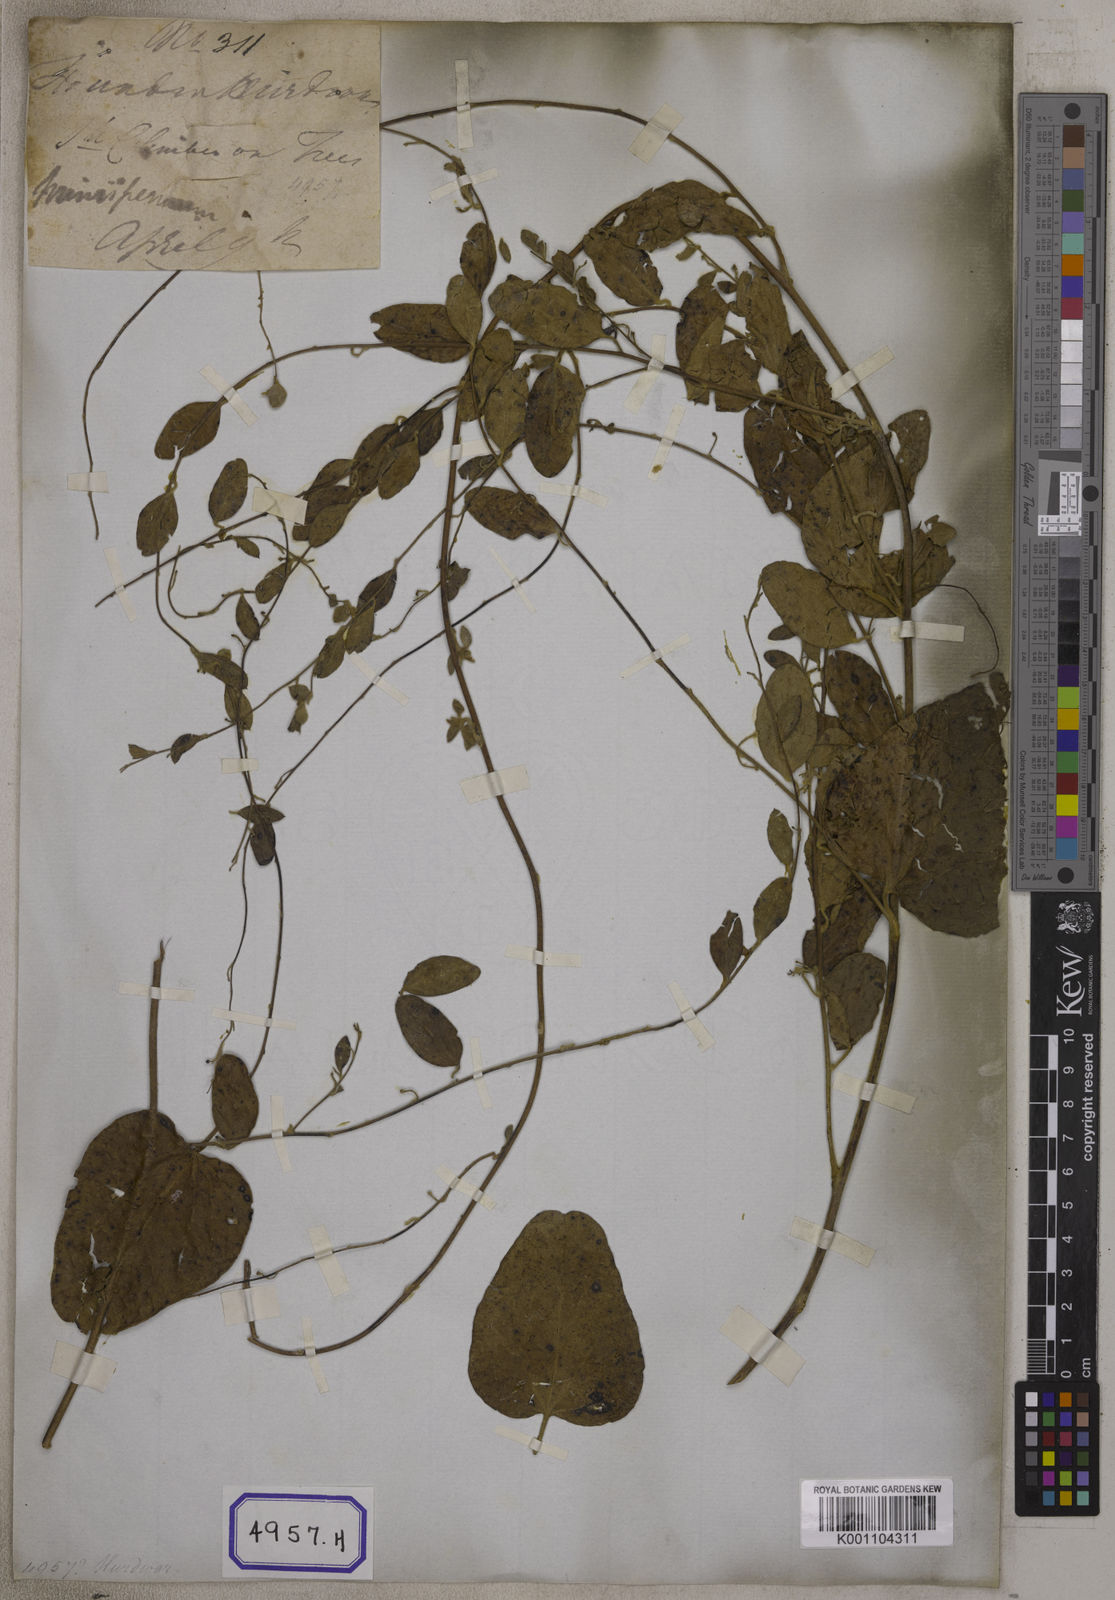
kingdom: Plantae
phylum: Tracheophyta
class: Magnoliopsida
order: Ranunculales
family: Menispermaceae
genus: Cocculus
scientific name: Cocculus hirsutus
